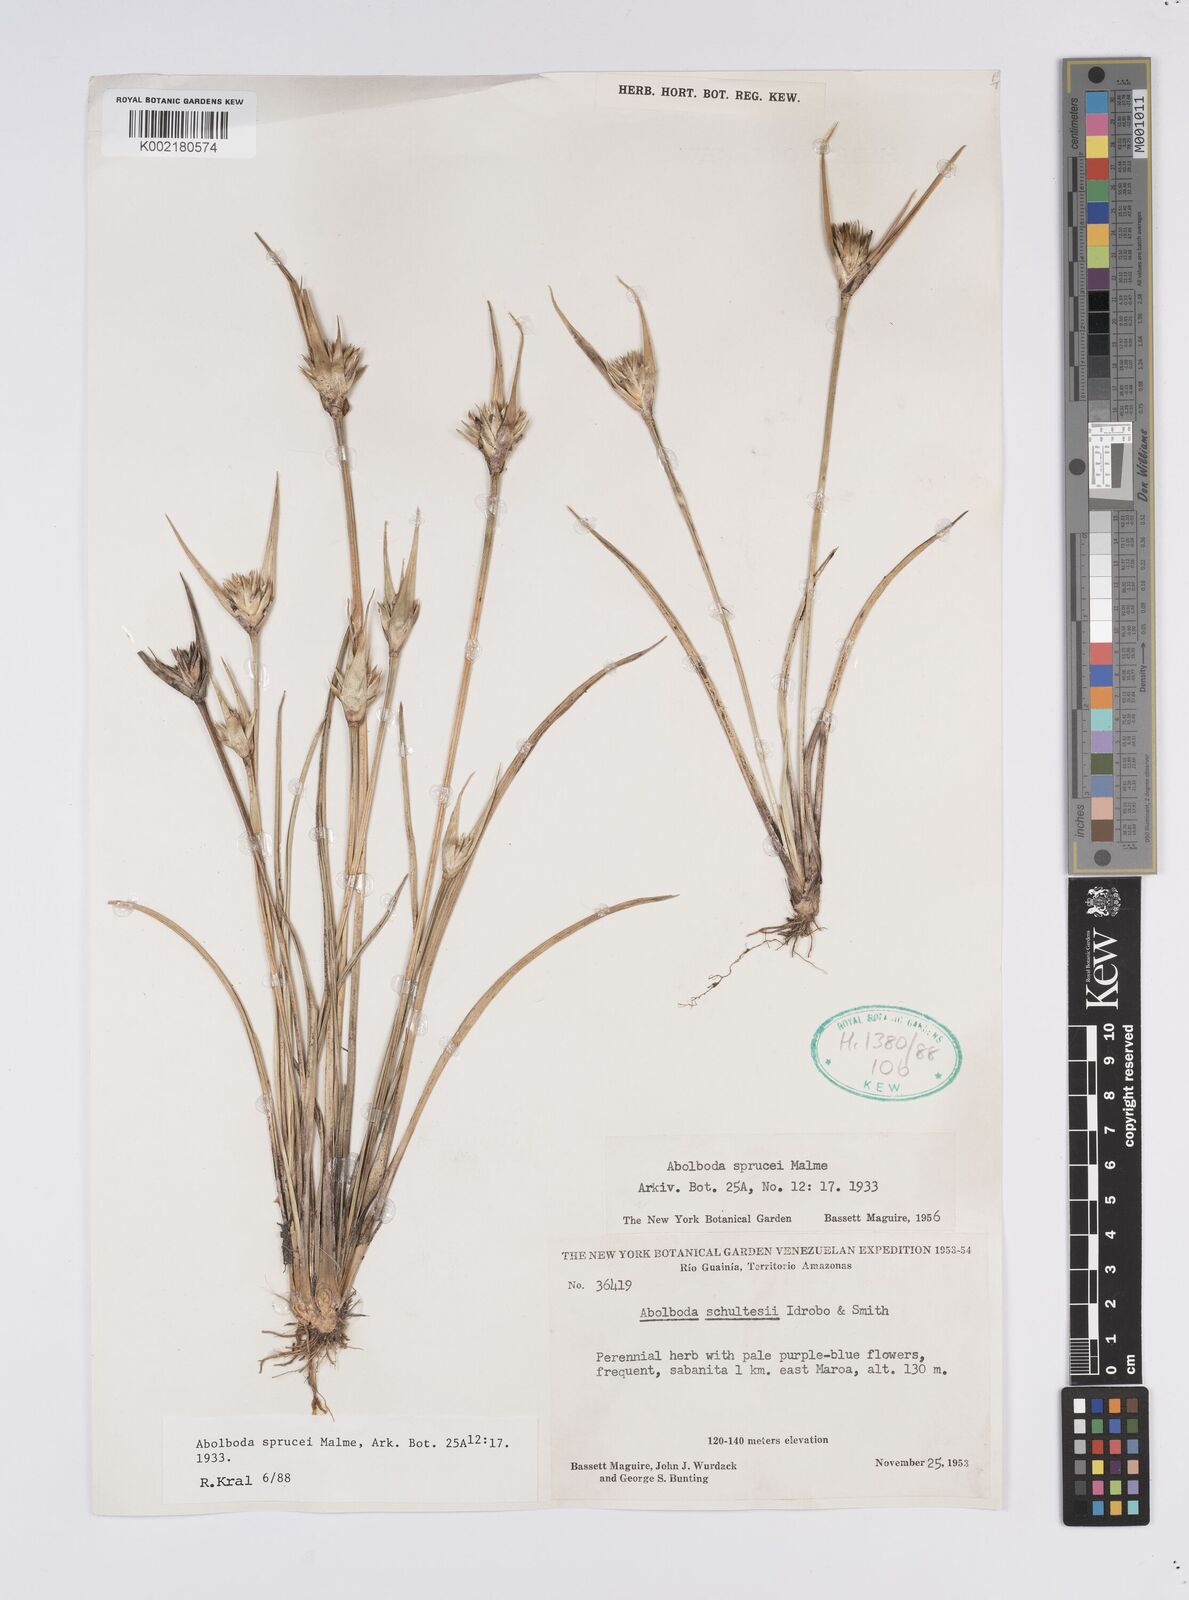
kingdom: Plantae
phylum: Tracheophyta
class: Liliopsida
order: Poales
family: Xyridaceae
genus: Abolboda
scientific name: Abolboda sprucei
